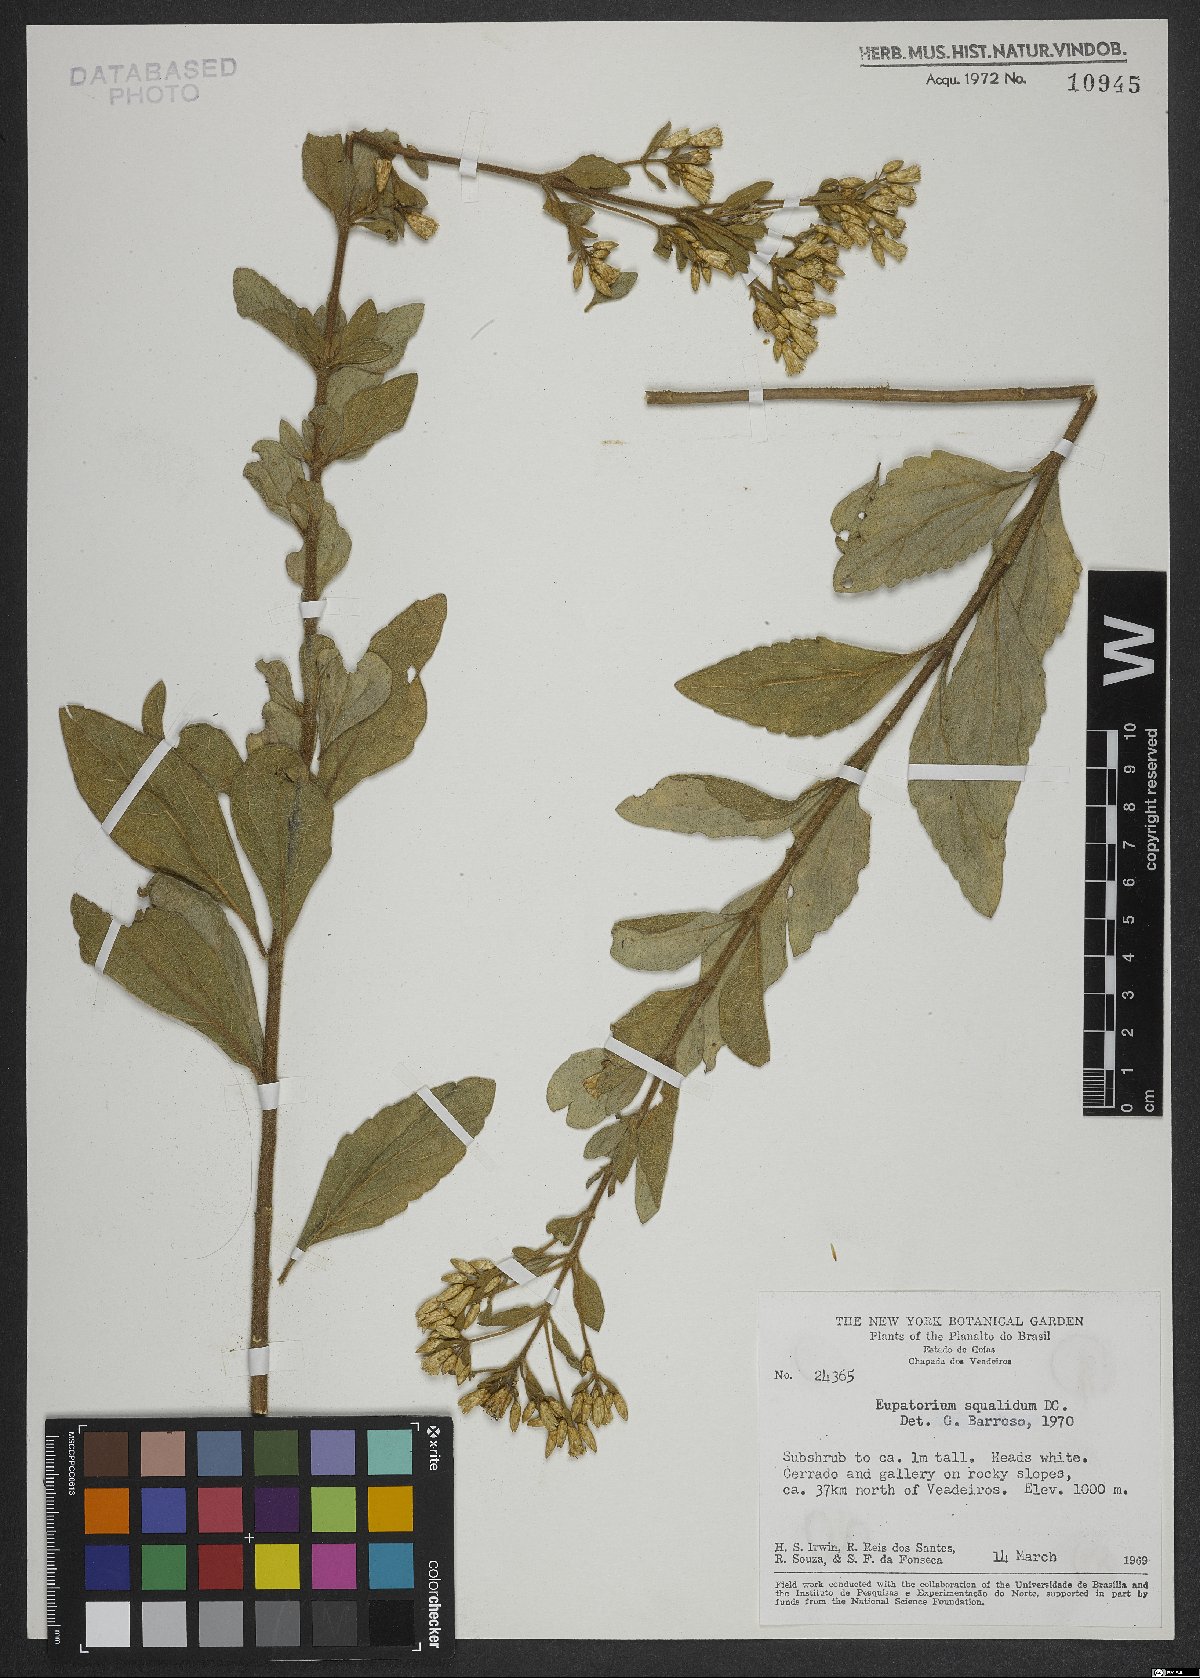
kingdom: Plantae
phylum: Tracheophyta
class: Magnoliopsida
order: Asterales
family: Asteraceae
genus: Chromolaena
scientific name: Chromolaena squalida
